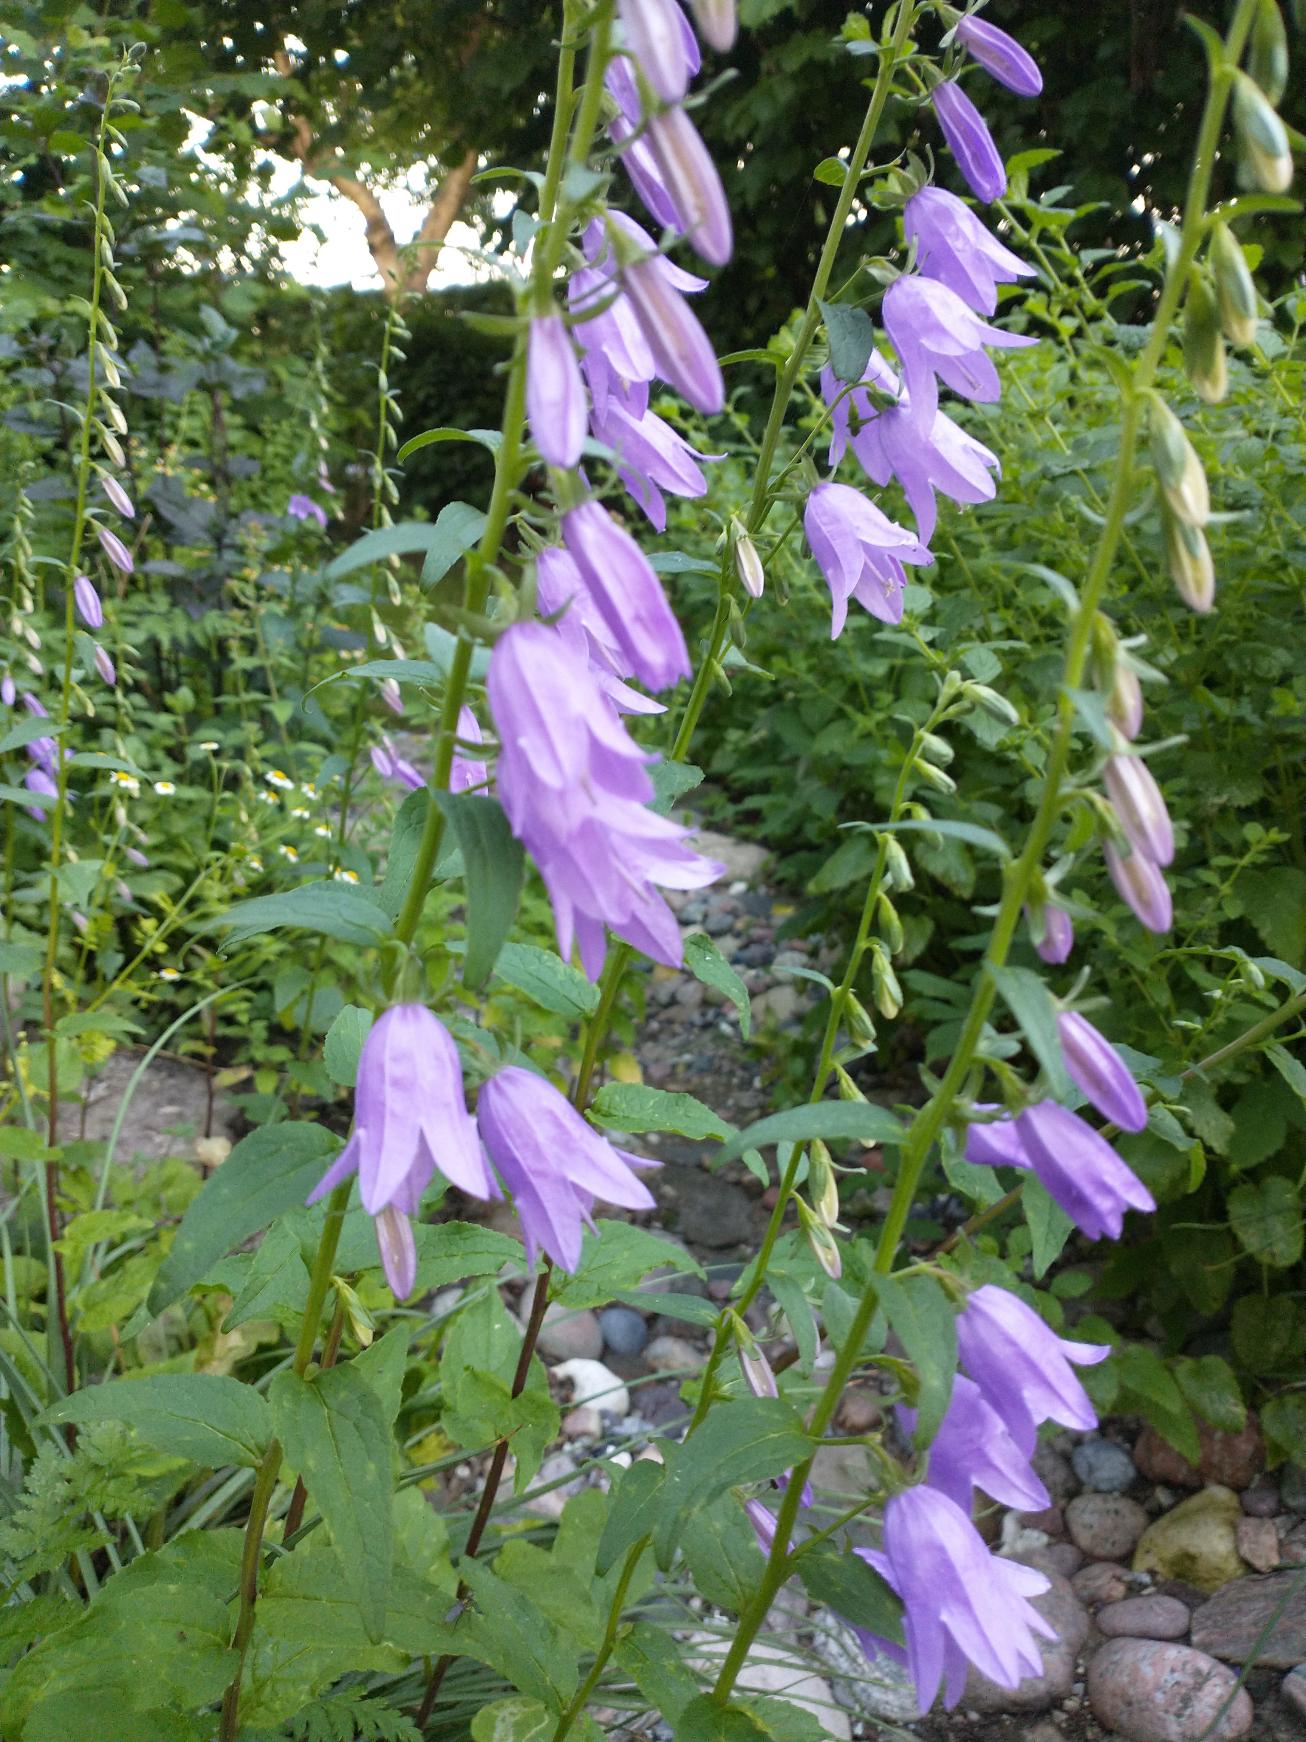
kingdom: Plantae
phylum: Tracheophyta
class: Magnoliopsida
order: Asterales
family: Campanulaceae
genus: Campanula
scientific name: Campanula rapunculoides
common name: Ensidig klokke
